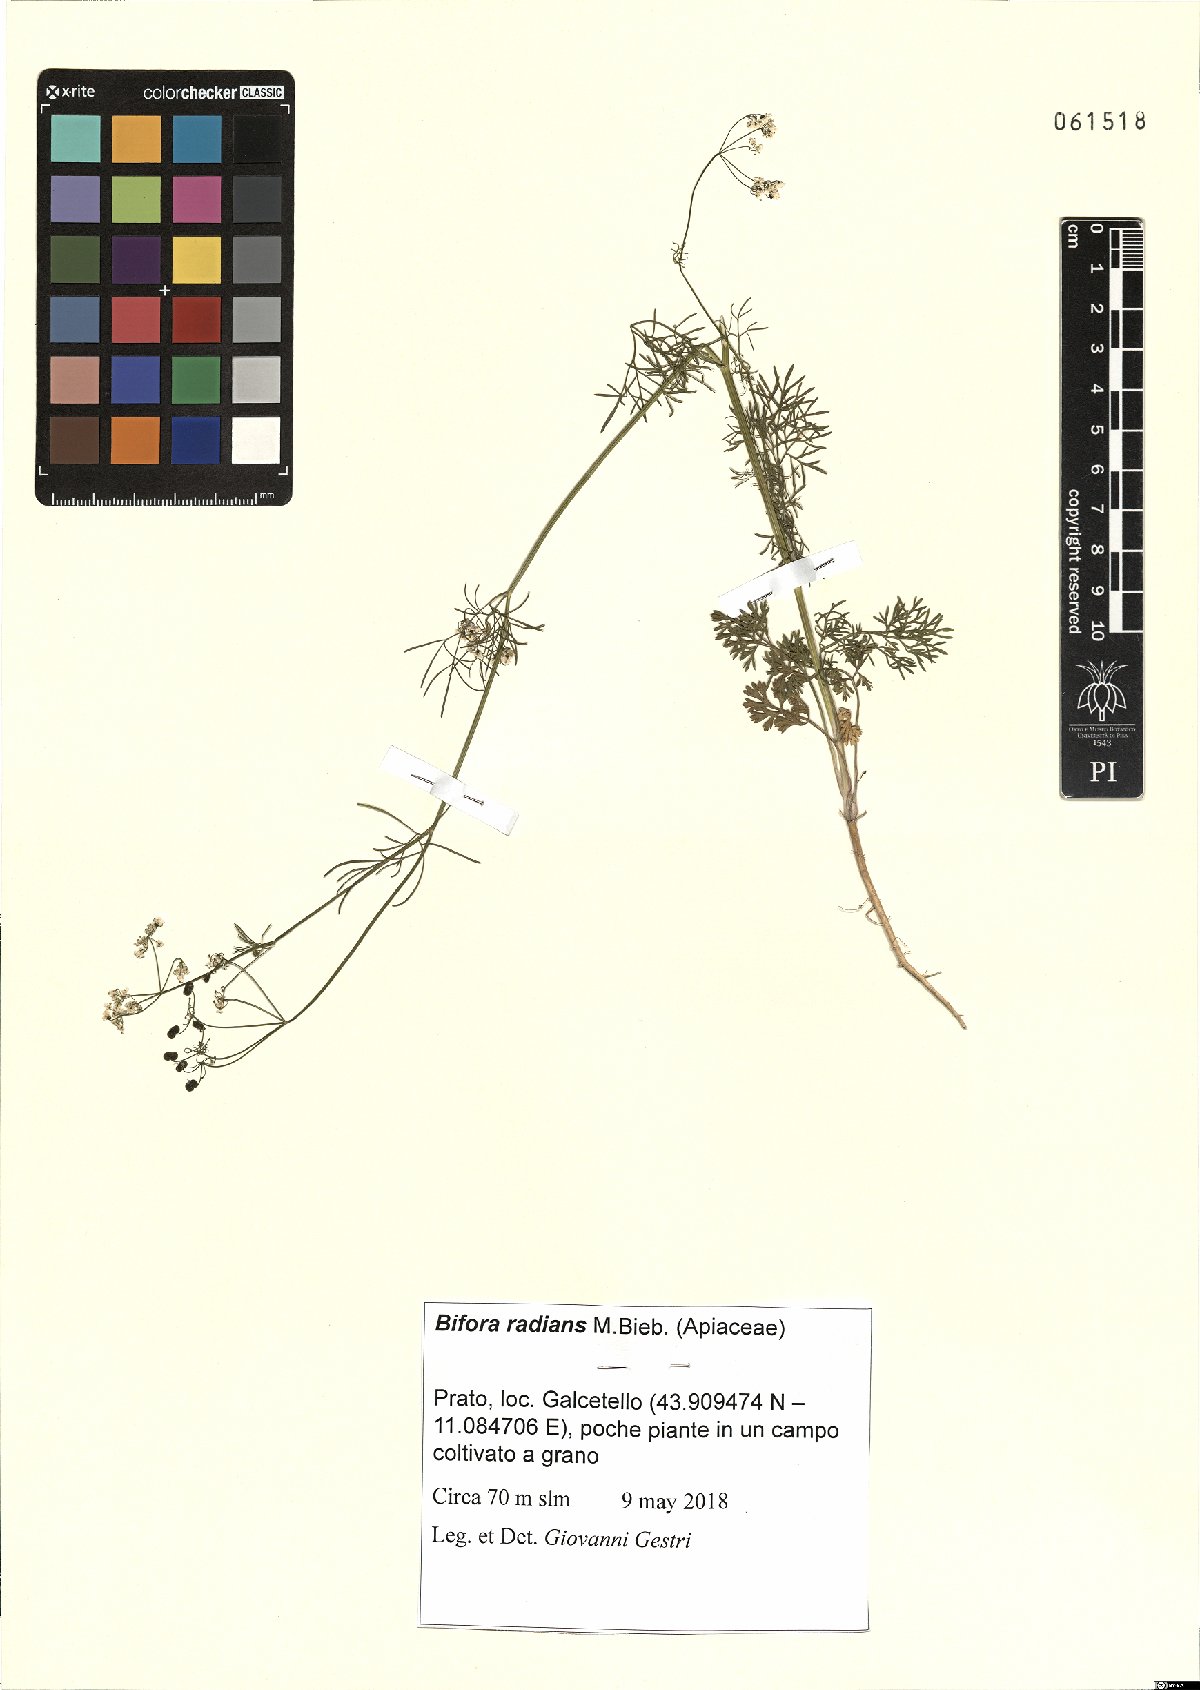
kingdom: Plantae
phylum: Tracheophyta
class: Magnoliopsida
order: Apiales
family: Apiaceae
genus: Bifora
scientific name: Bifora radians
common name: Wild bishop
